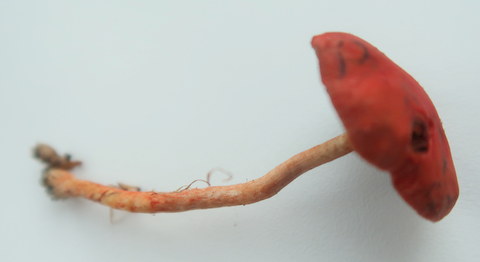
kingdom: Fungi
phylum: Basidiomycota
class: Agaricomycetes
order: Agaricales
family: Strophariaceae
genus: Leratiomyces
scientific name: Leratiomyces ceres
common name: orange bredblad
